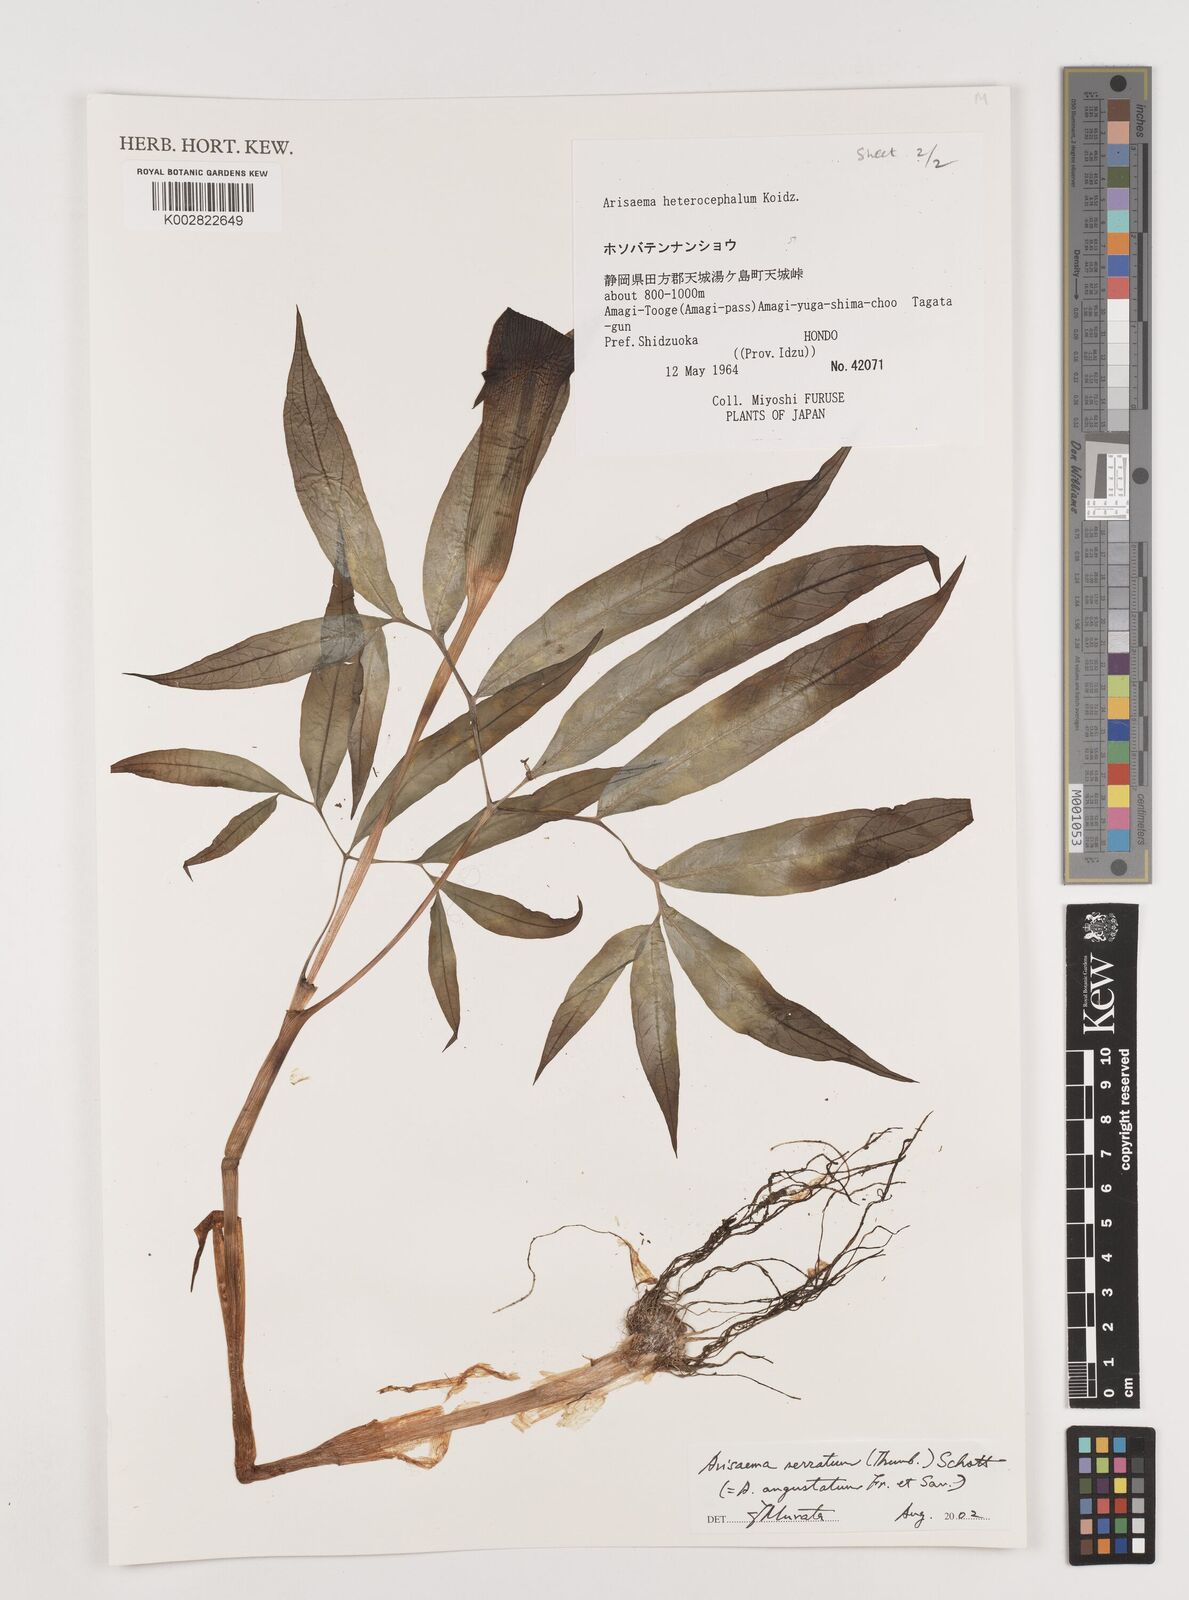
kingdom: Plantae
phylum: Tracheophyta
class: Liliopsida
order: Alismatales
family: Araceae
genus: Arisaema
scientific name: Arisaema serratum
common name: Japanese arisaema
